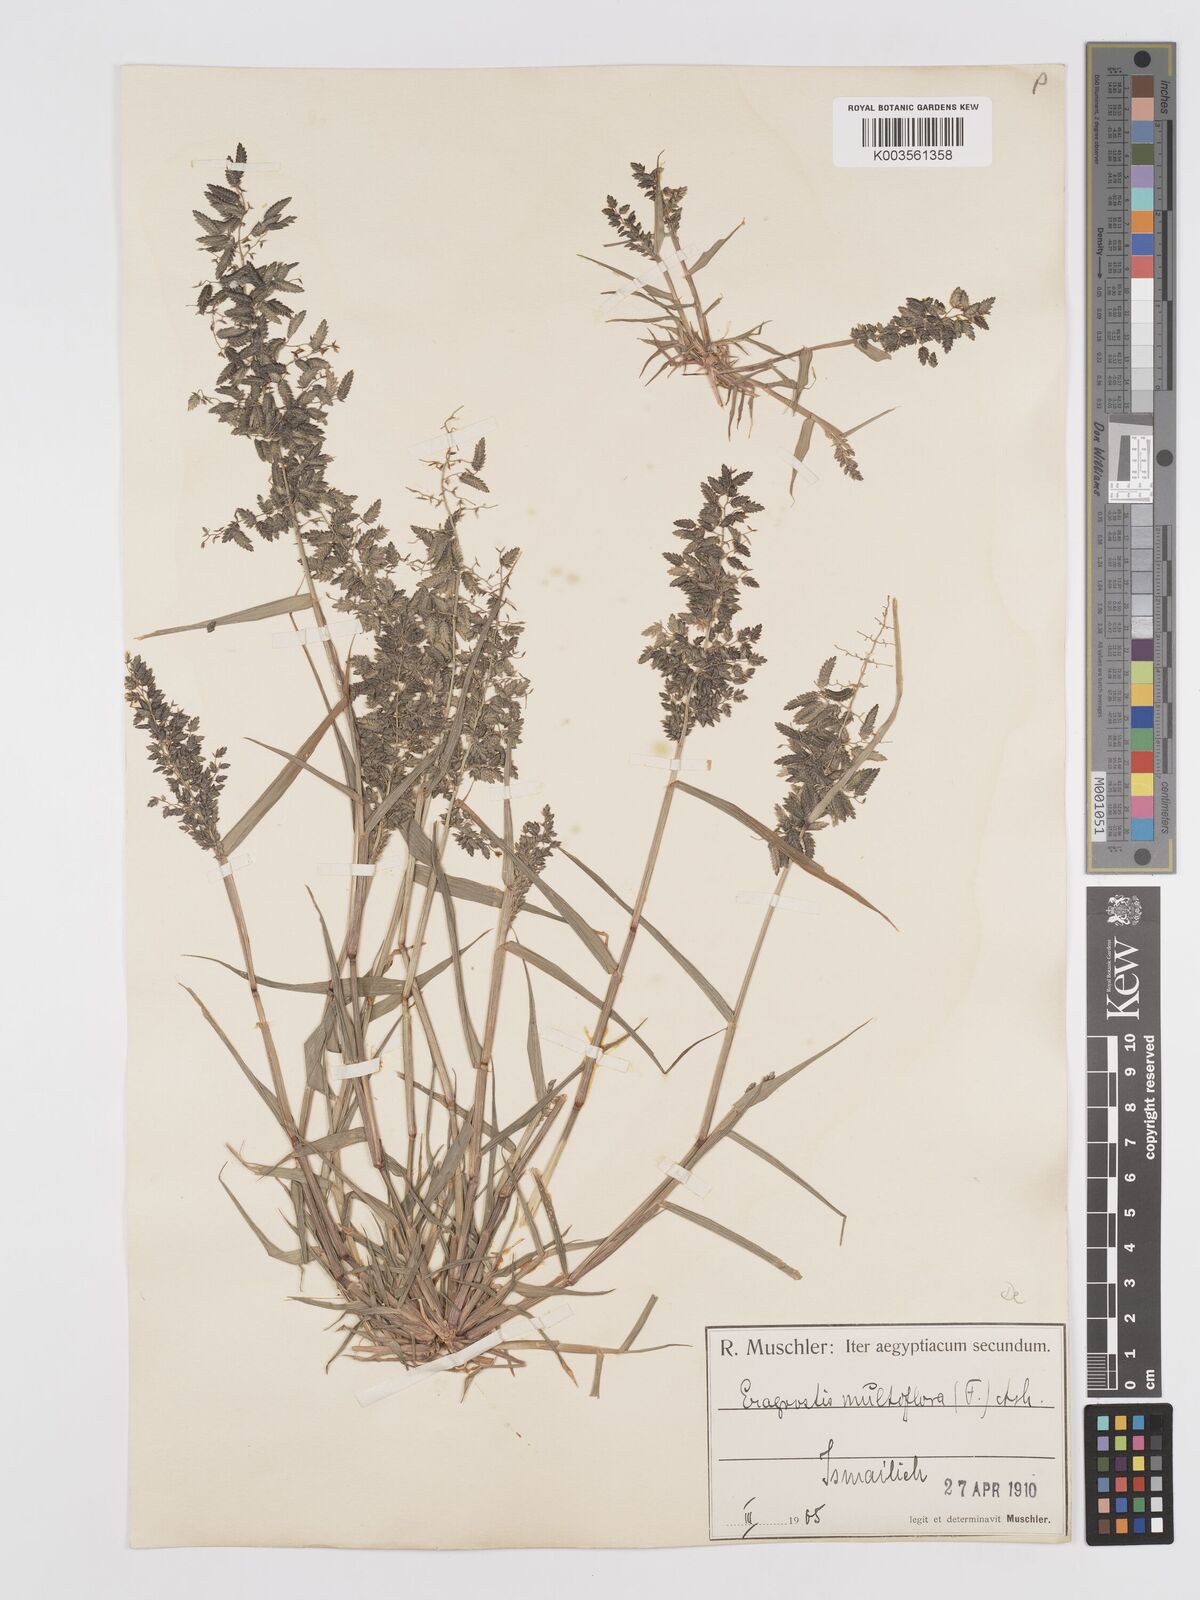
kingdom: Plantae
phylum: Tracheophyta
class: Liliopsida
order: Poales
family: Poaceae
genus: Eragrostis
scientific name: Eragrostis cilianensis
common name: Stinkgrass
